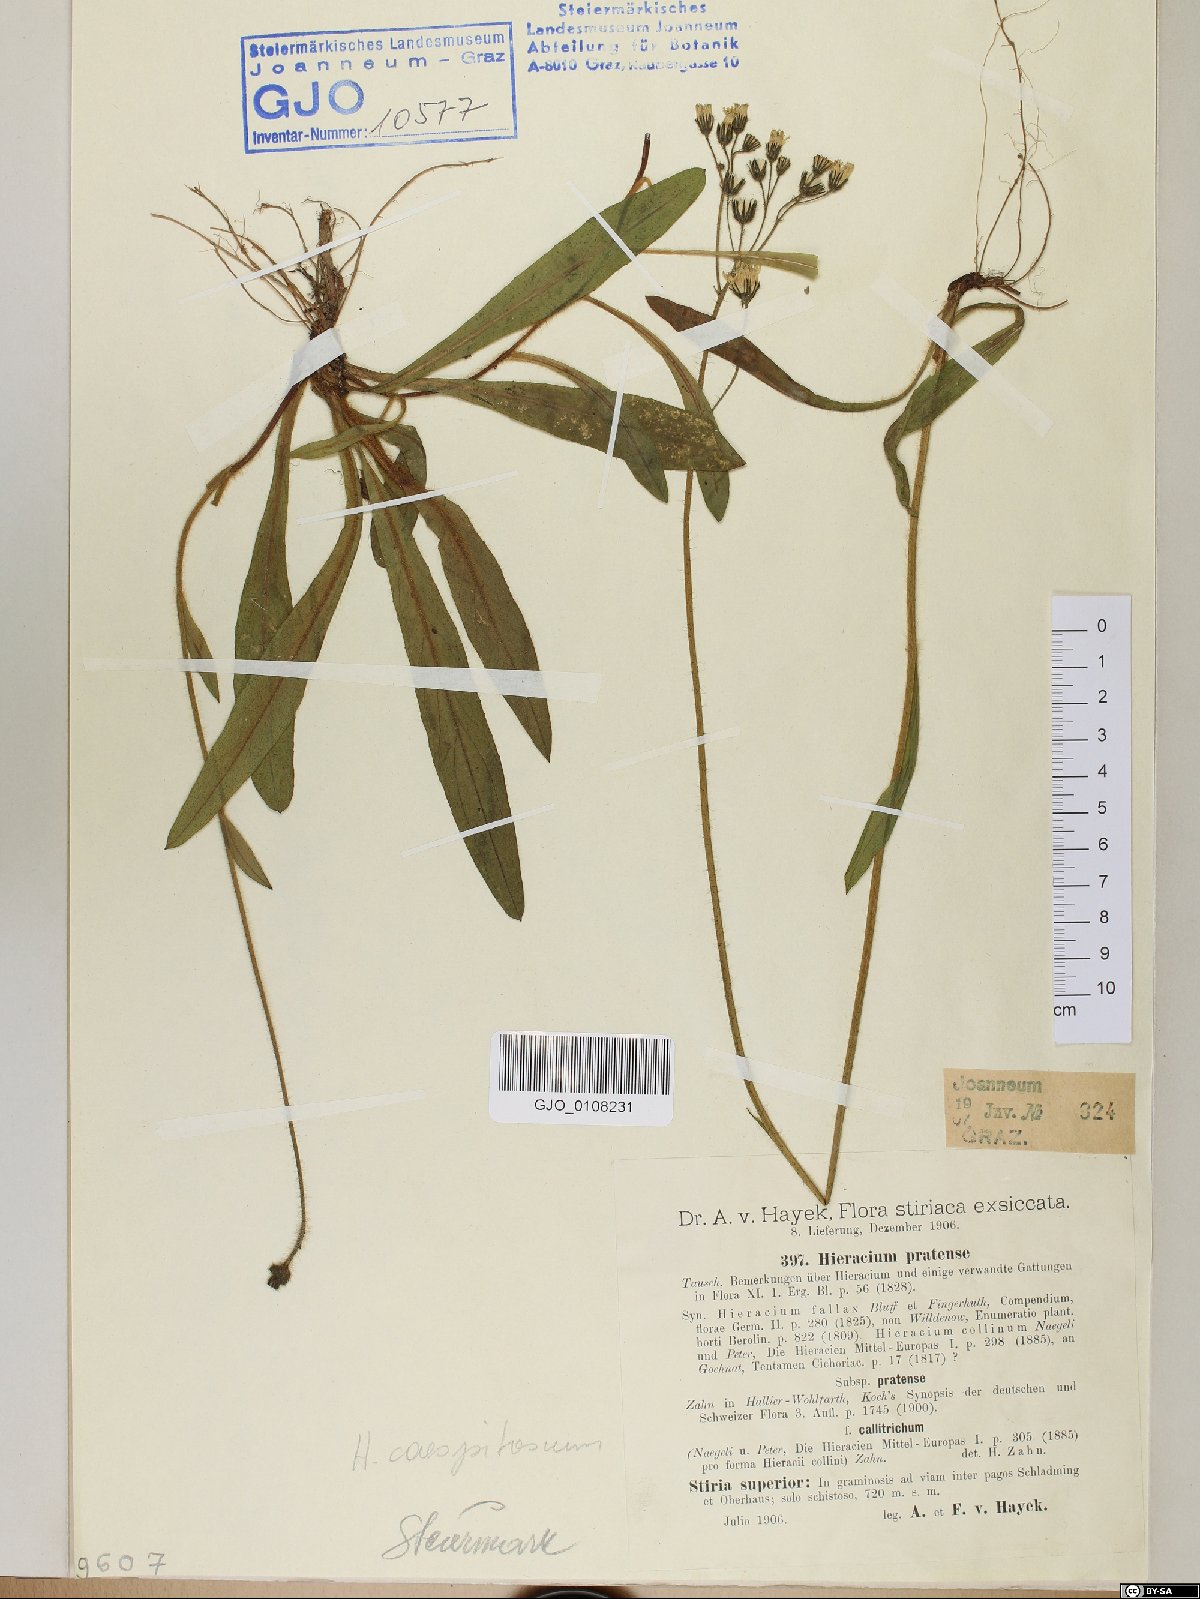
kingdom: Plantae
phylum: Tracheophyta
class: Magnoliopsida
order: Asterales
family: Asteraceae
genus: Pilosella
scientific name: Pilosella caespitosa
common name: Yellow fox-and-cubs
